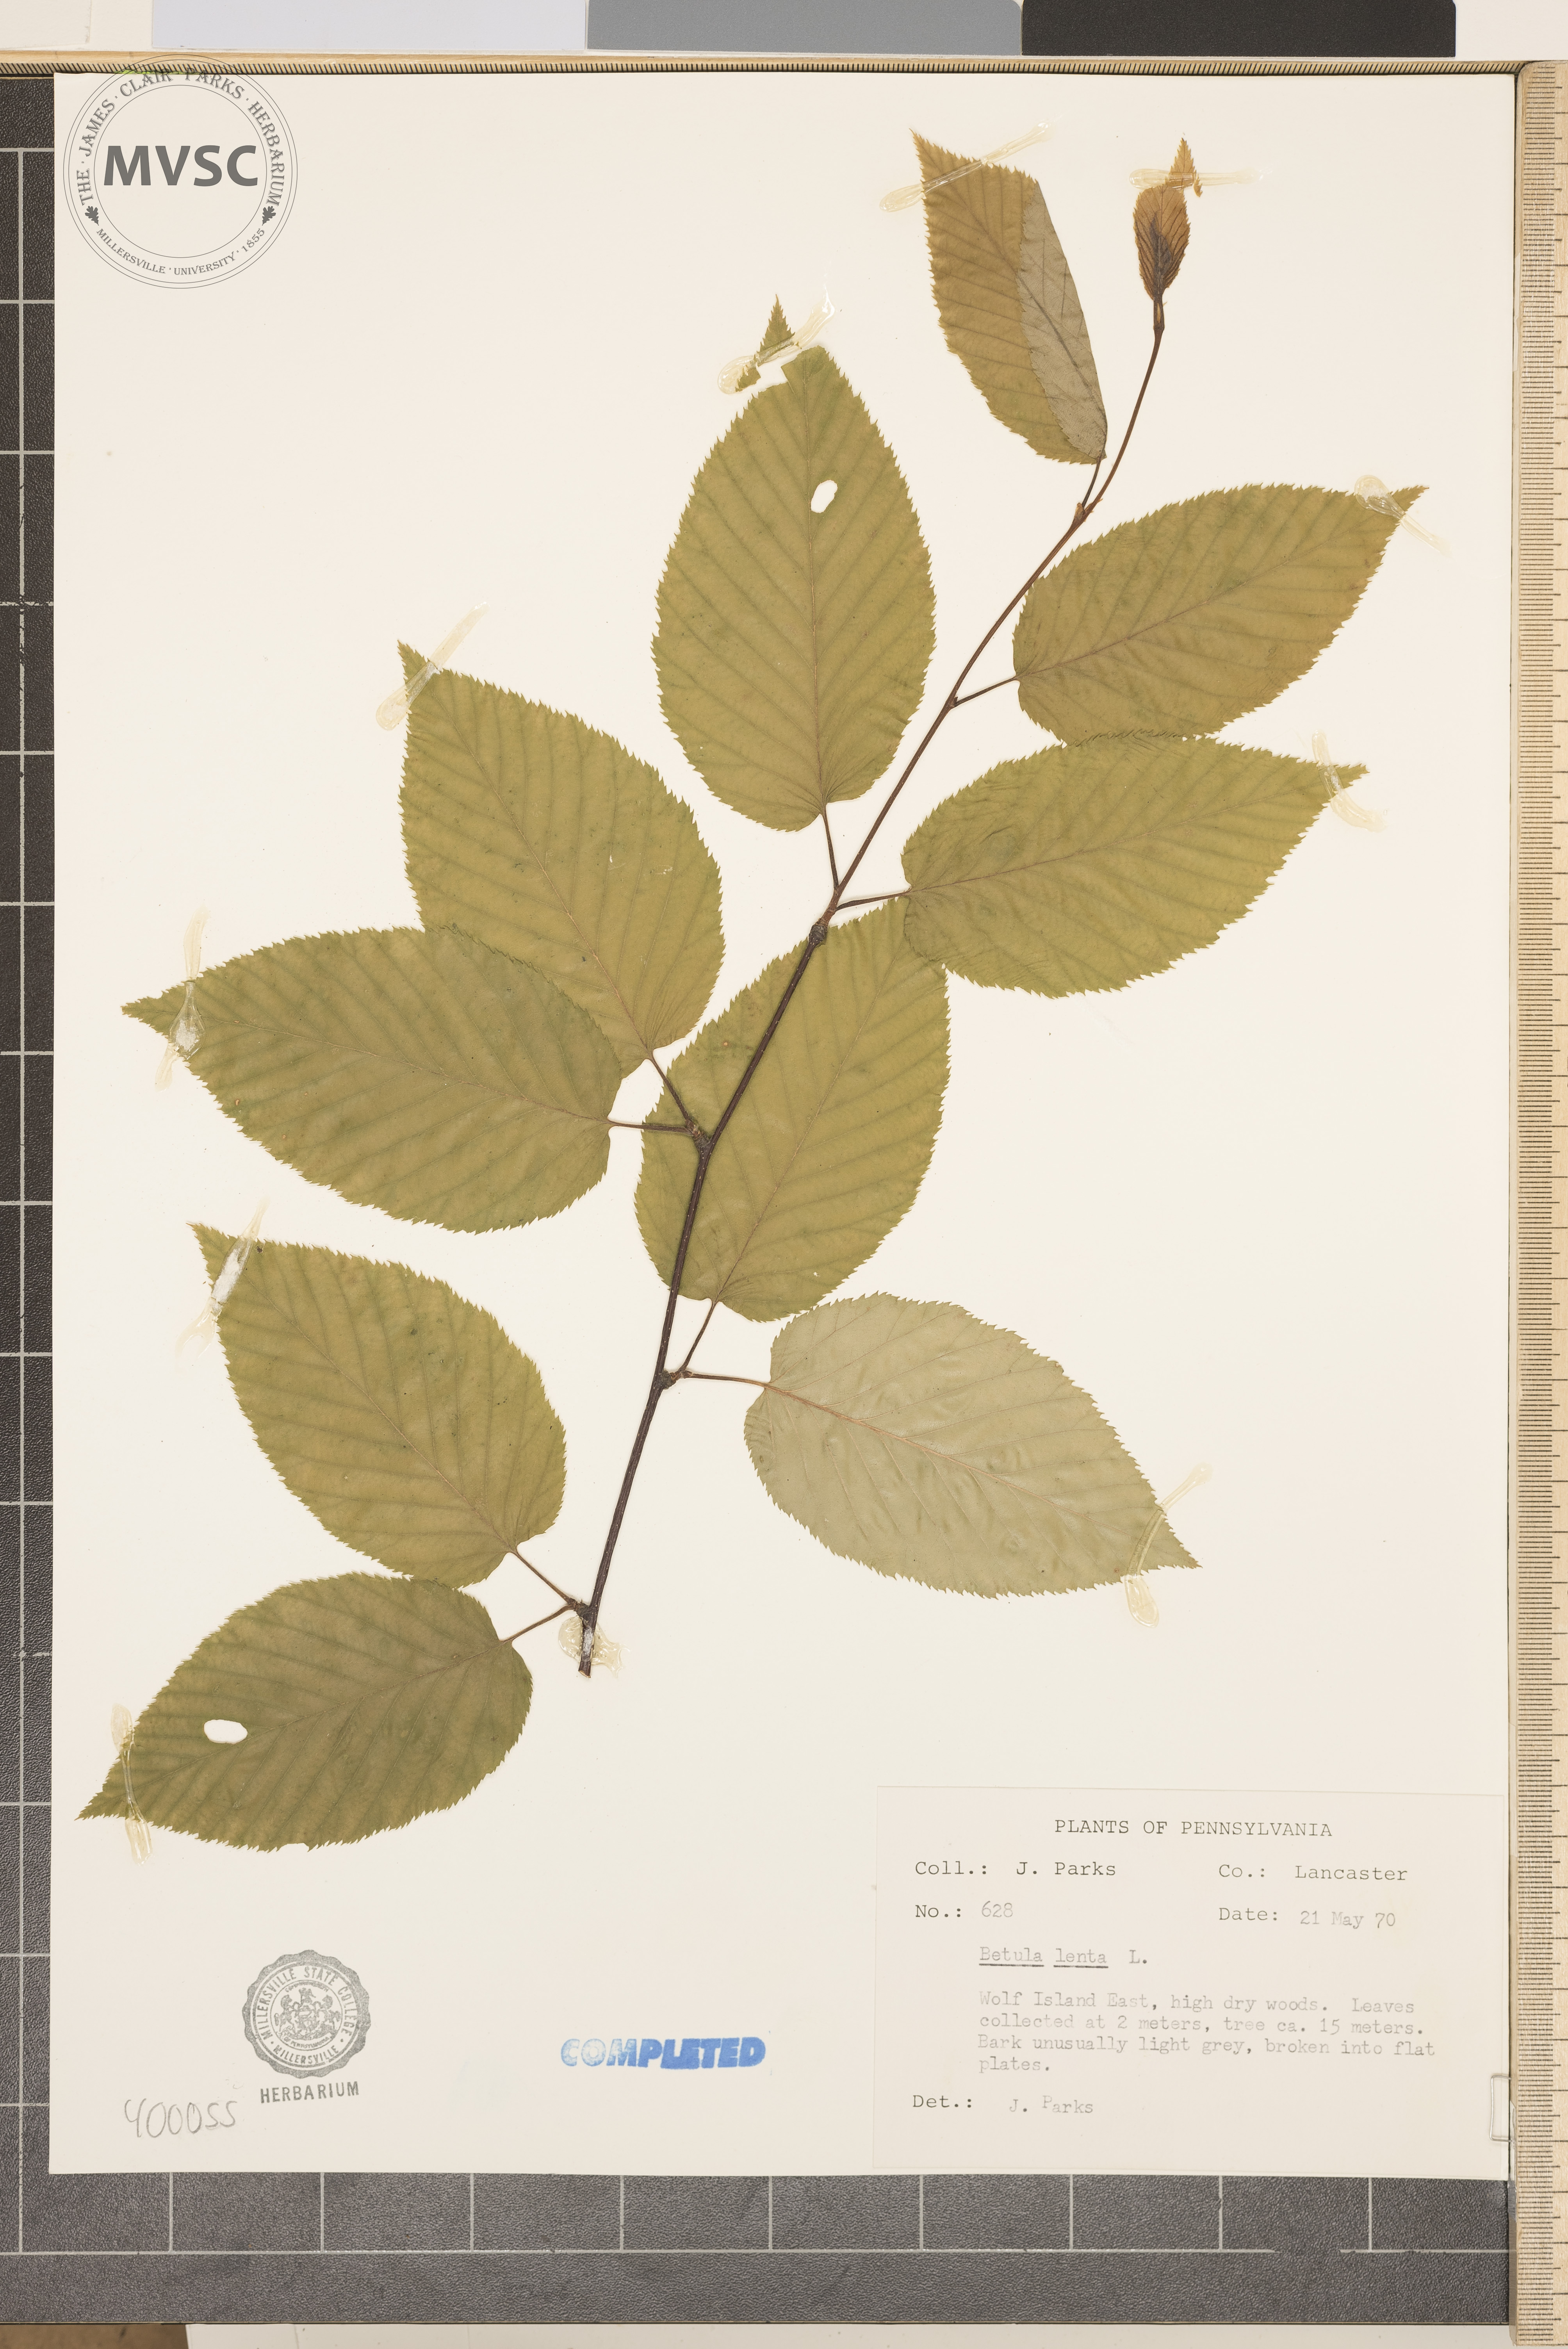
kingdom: Plantae
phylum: Tracheophyta
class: Magnoliopsida
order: Fagales
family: Betulaceae
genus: Betula
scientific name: Betula lenta
